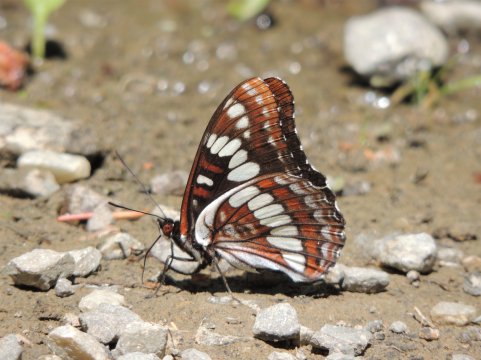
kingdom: Animalia
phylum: Arthropoda
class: Insecta
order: Lepidoptera
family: Nymphalidae
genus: Limenitis
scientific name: Limenitis lorquini
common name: Lorquin's Admiral
